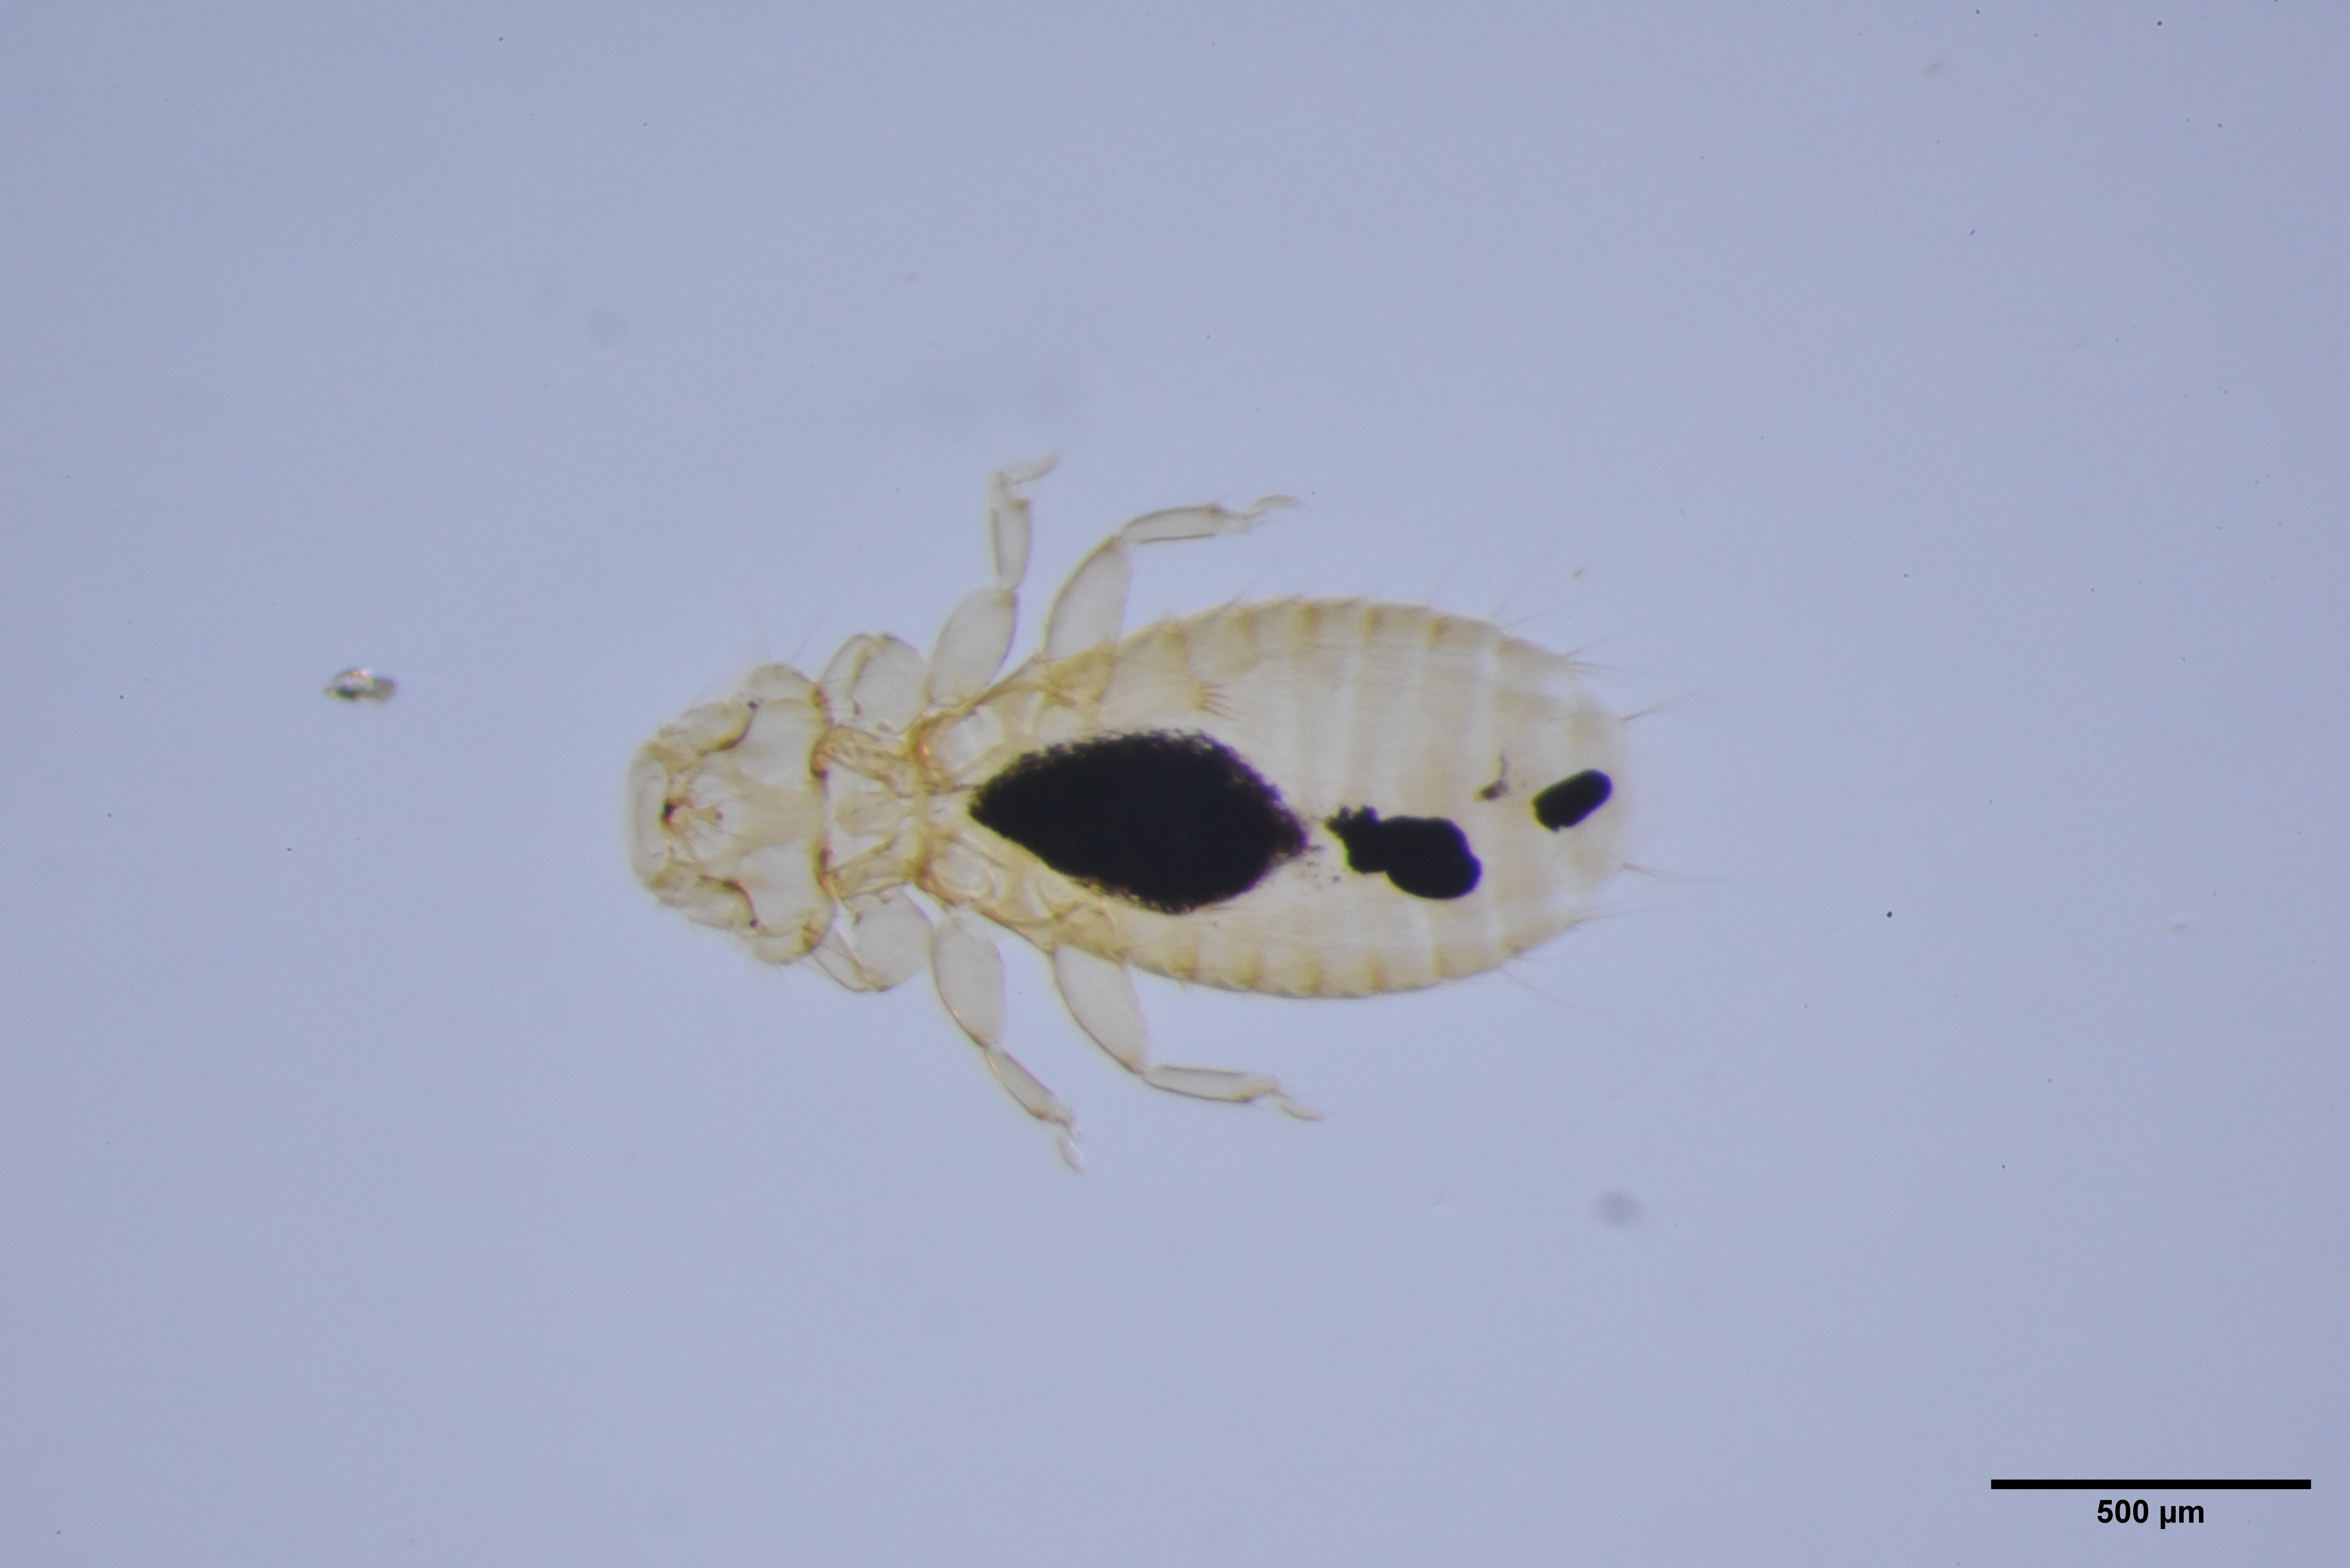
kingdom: Animalia
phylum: Arthropoda
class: Insecta
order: Psocodea
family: Menoponidae
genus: Myrsidea
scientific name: Myrsidea latifrons
